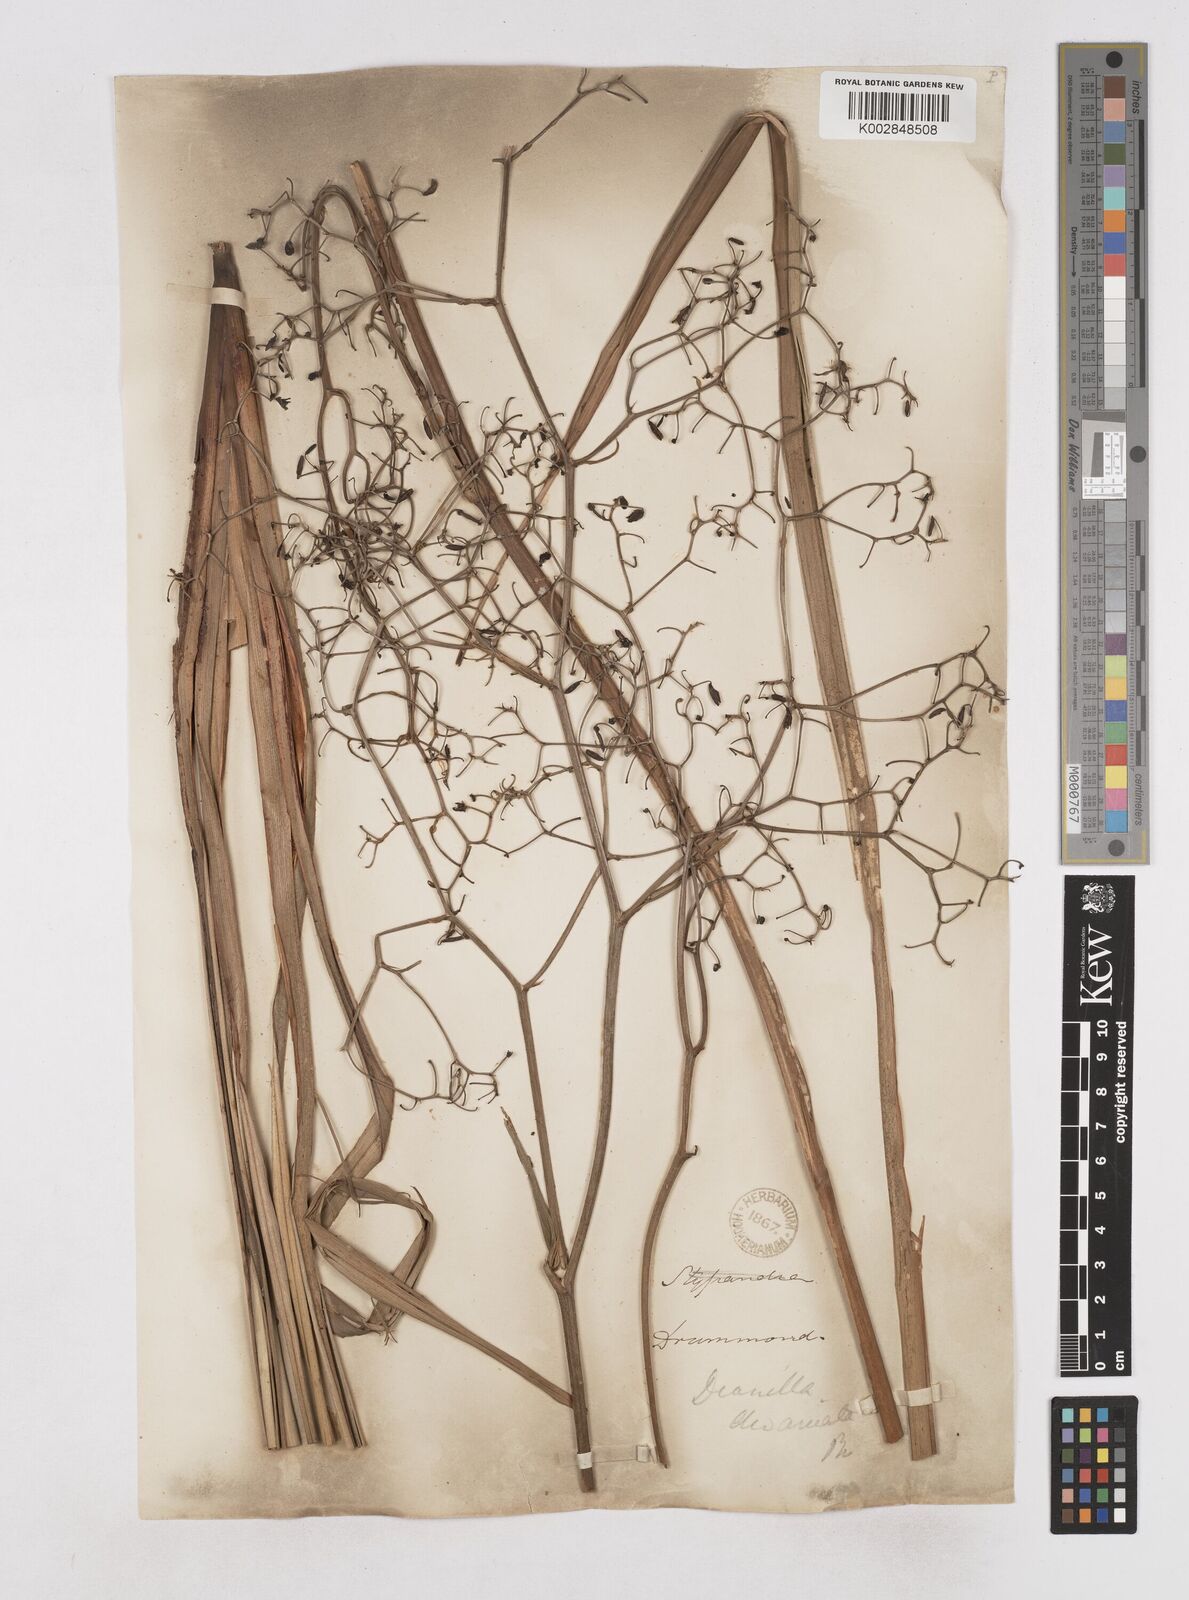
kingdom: Plantae
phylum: Tracheophyta
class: Liliopsida
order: Asparagales
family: Asphodelaceae
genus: Dianella
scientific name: Dianella revoluta
